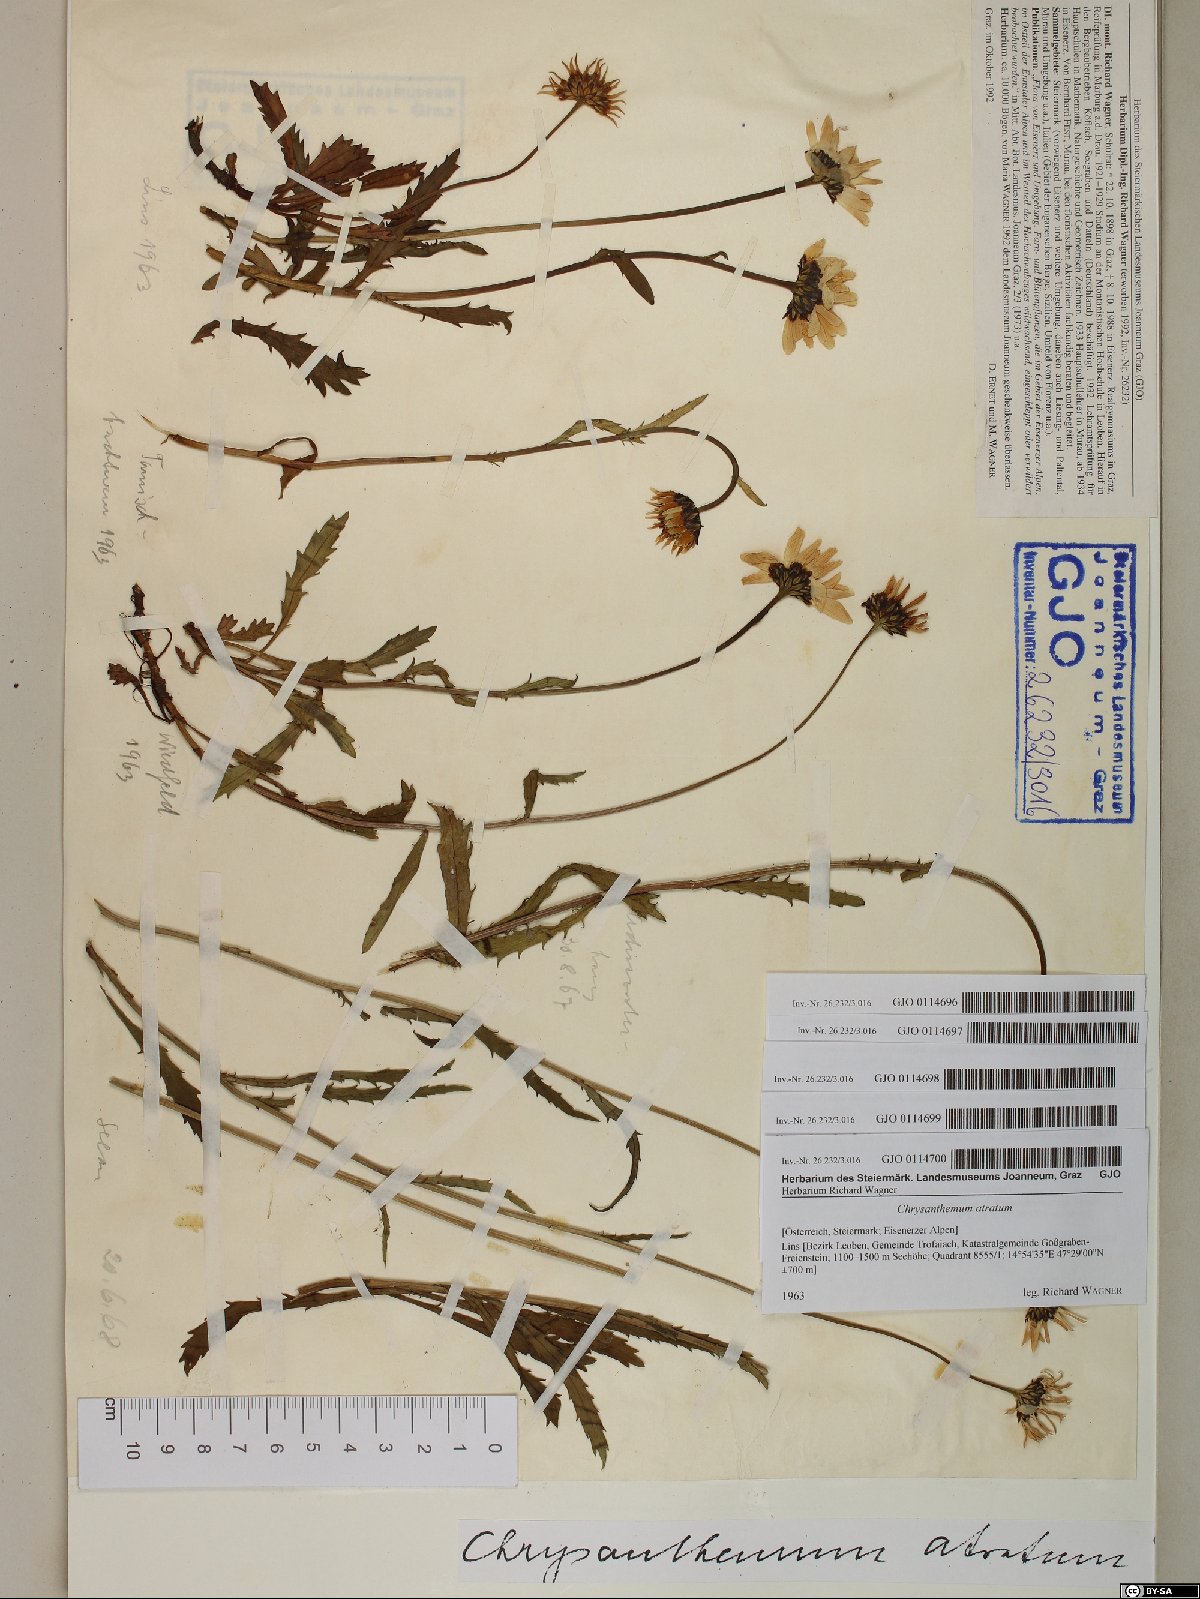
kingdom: Plantae
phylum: Tracheophyta
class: Magnoliopsida
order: Asterales
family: Asteraceae
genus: Leucanthemum
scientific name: Leucanthemum atratum
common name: Saw-leaved moon-daisy
